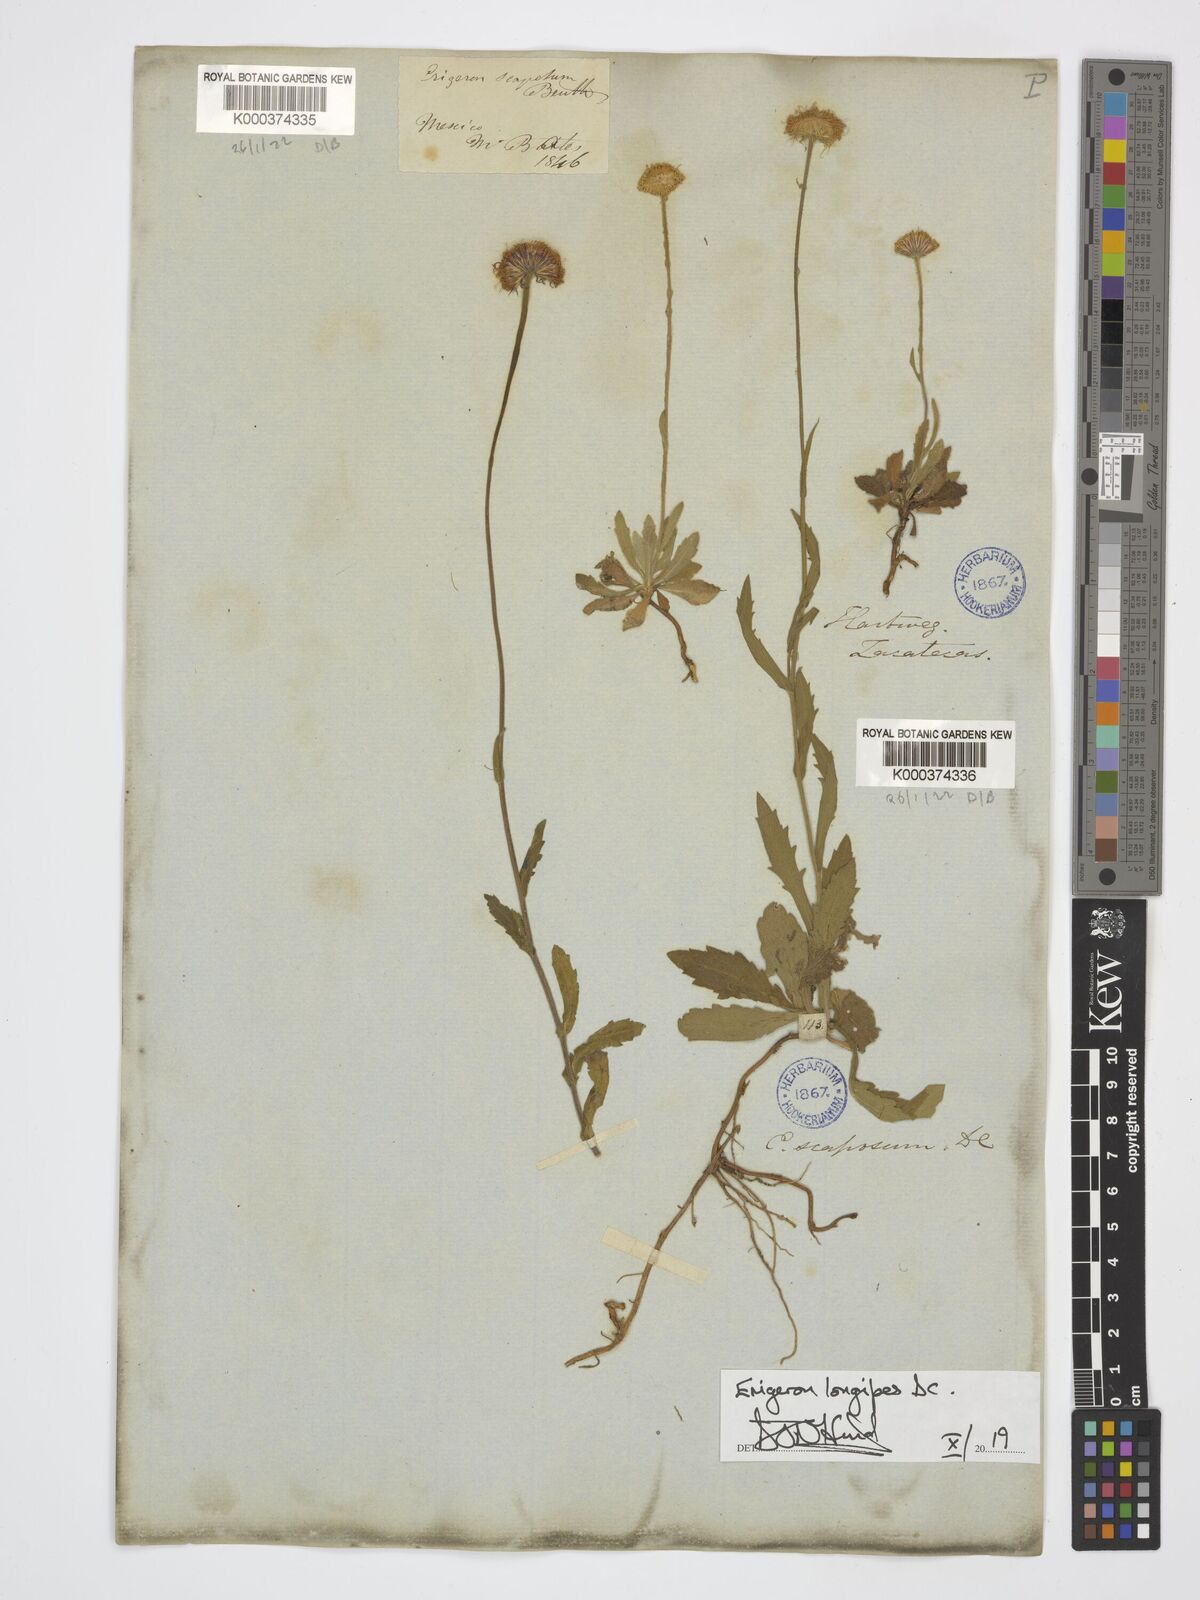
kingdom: Plantae
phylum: Tracheophyta
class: Magnoliopsida
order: Asterales
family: Asteraceae
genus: Erigeron
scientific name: Erigeron longipes
